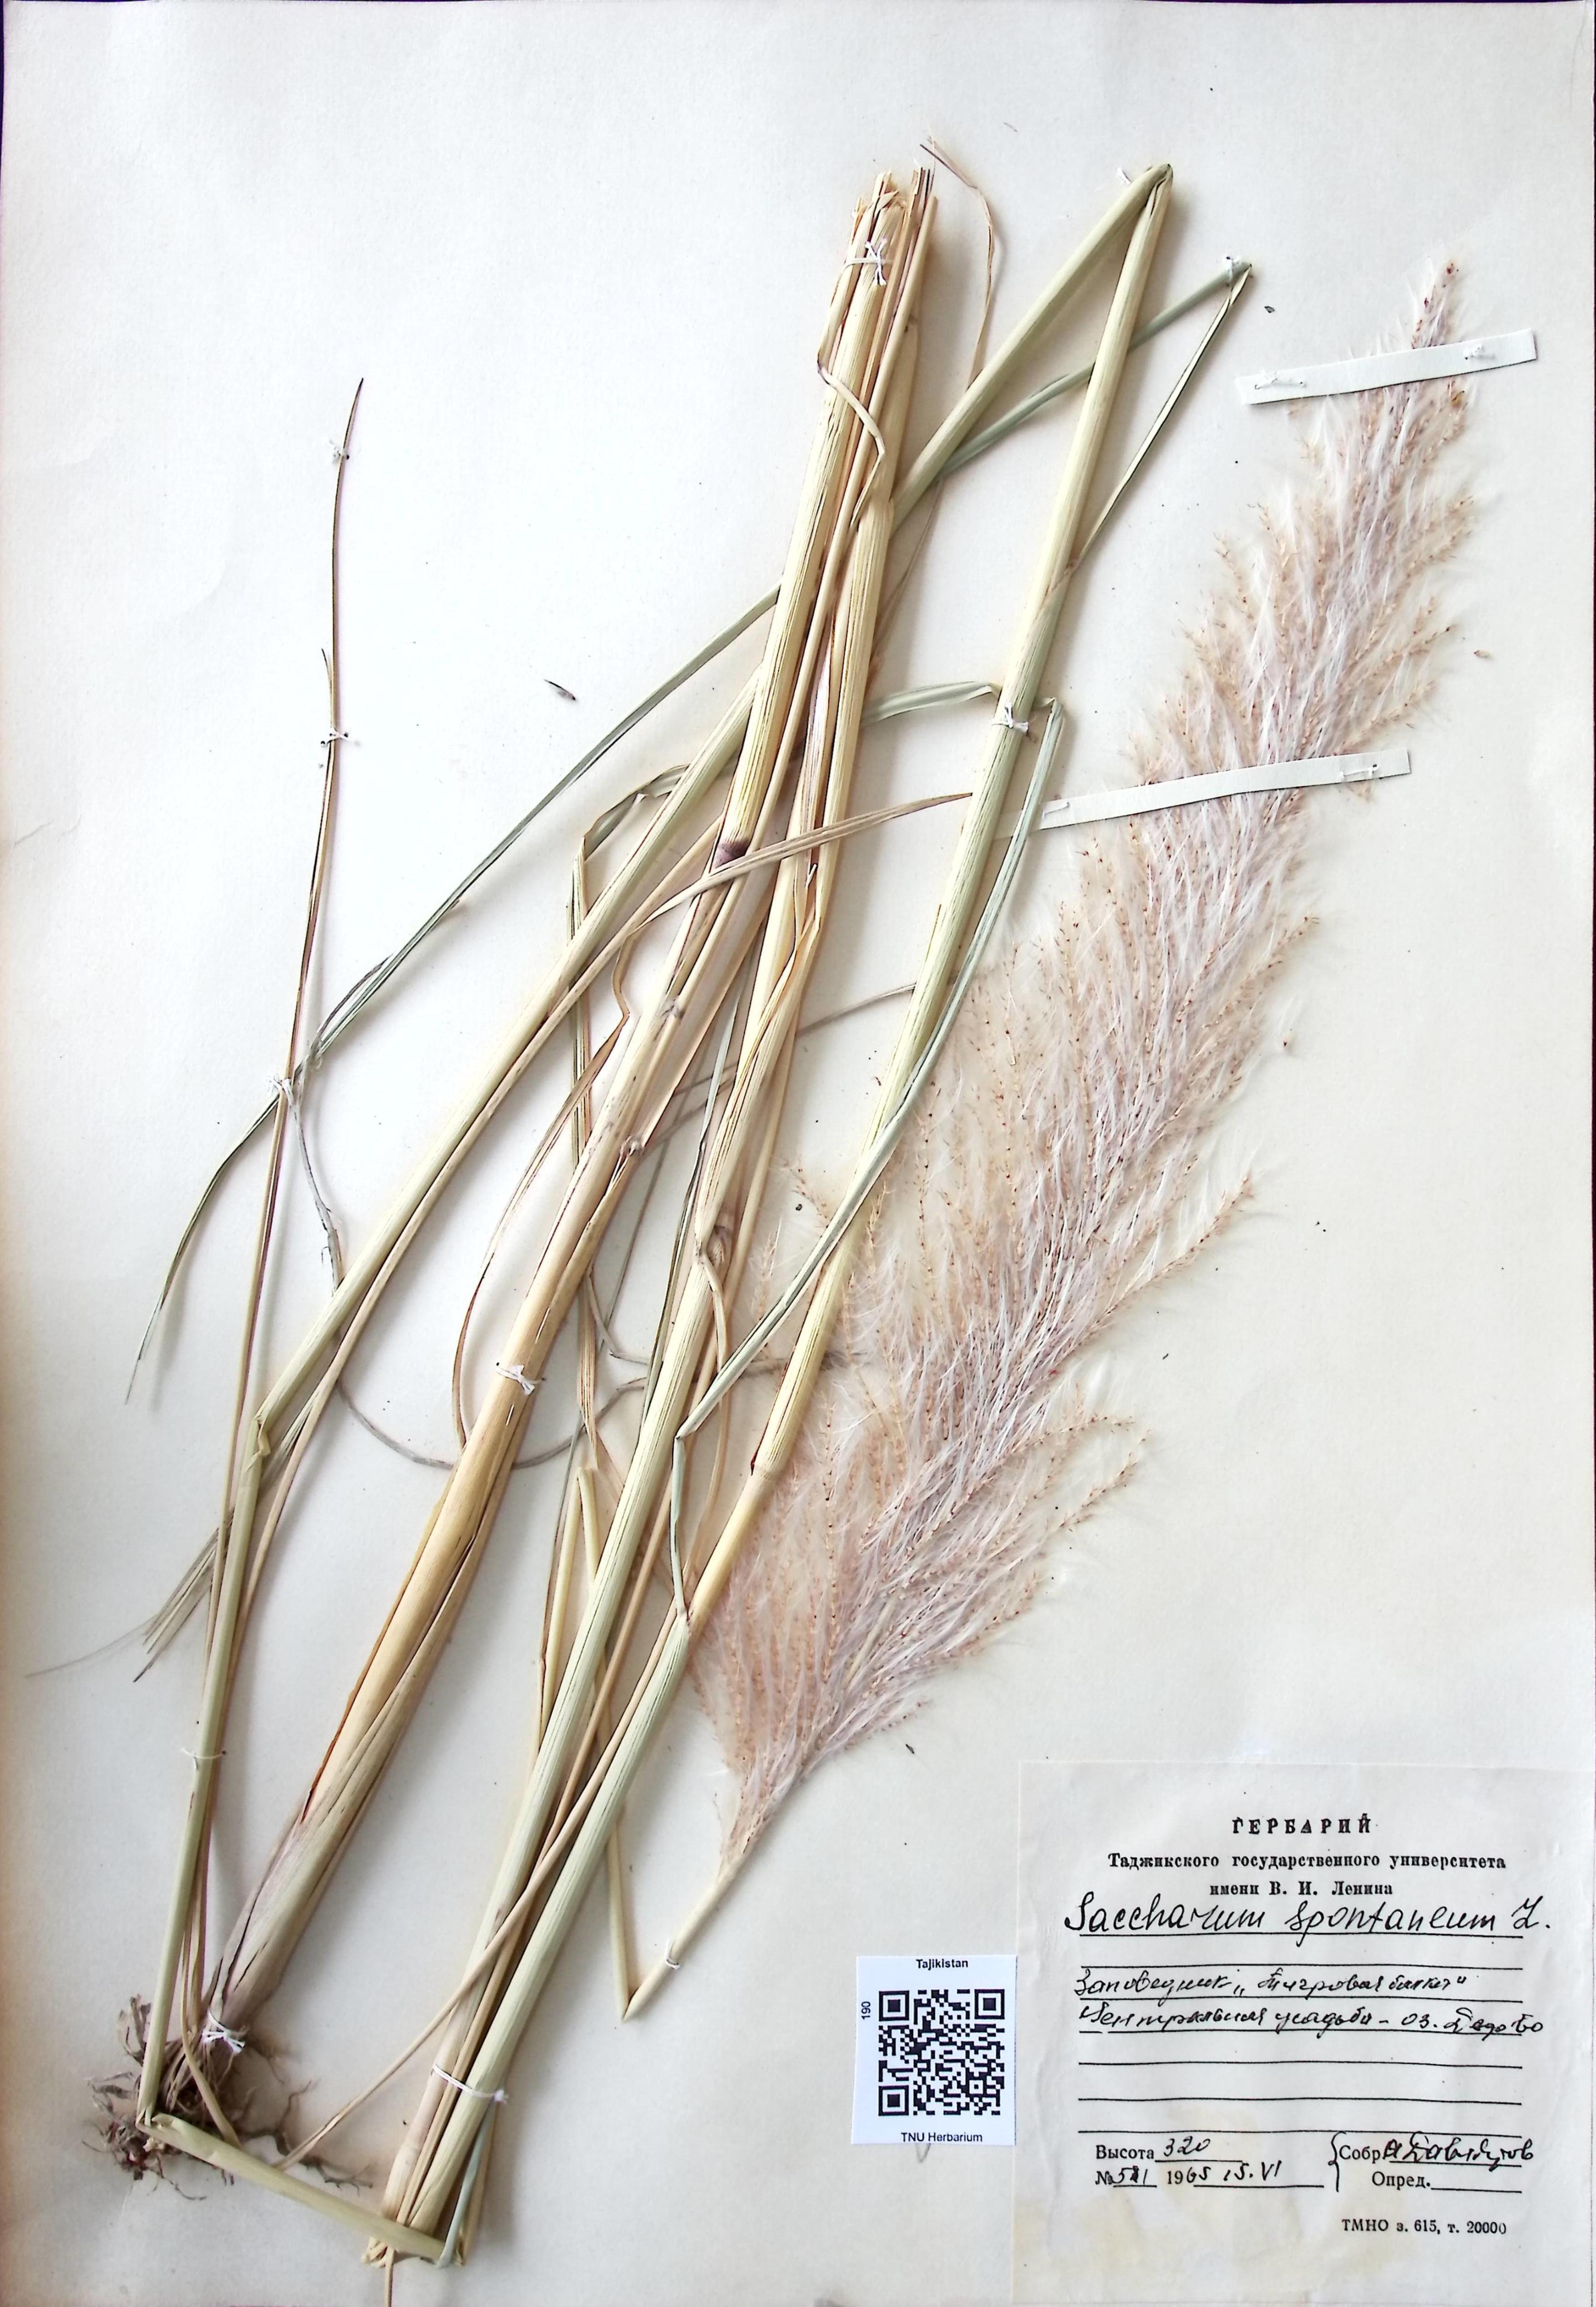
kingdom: Plantae
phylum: Tracheophyta
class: Liliopsida
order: Poales
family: Poaceae
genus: Saccharum
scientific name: Saccharum spontaneum
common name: Wild sugarcane
